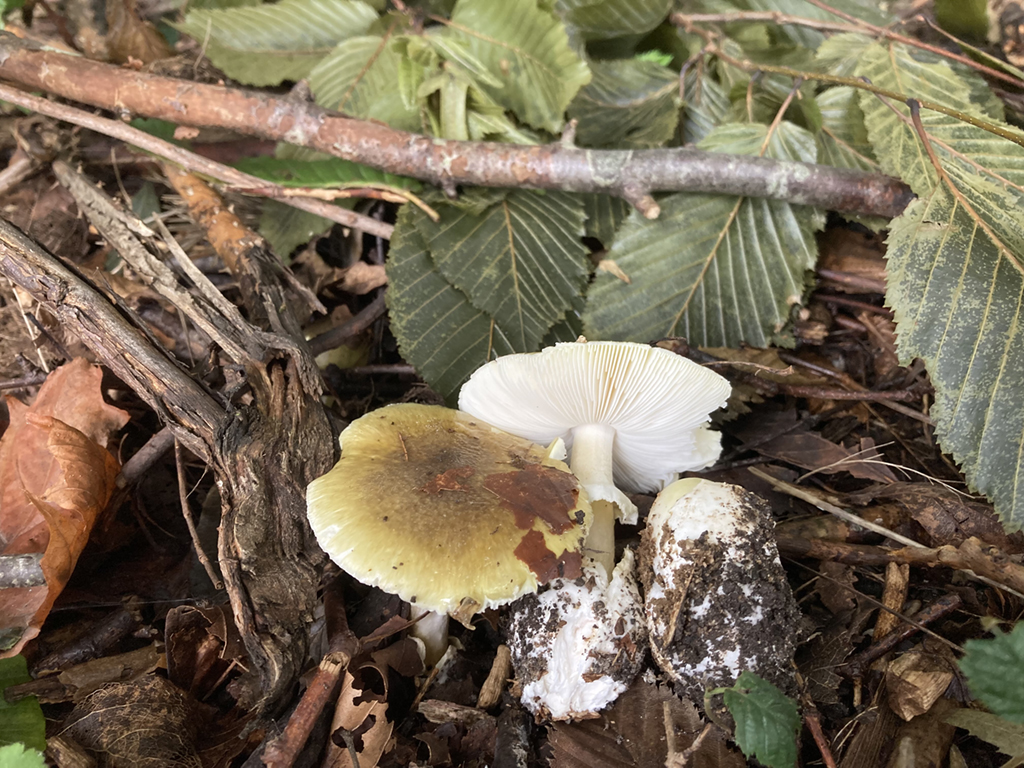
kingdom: Fungi
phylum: Basidiomycota
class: Agaricomycetes
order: Agaricales
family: Amanitaceae
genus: Amanita
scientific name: Amanita phalloides
